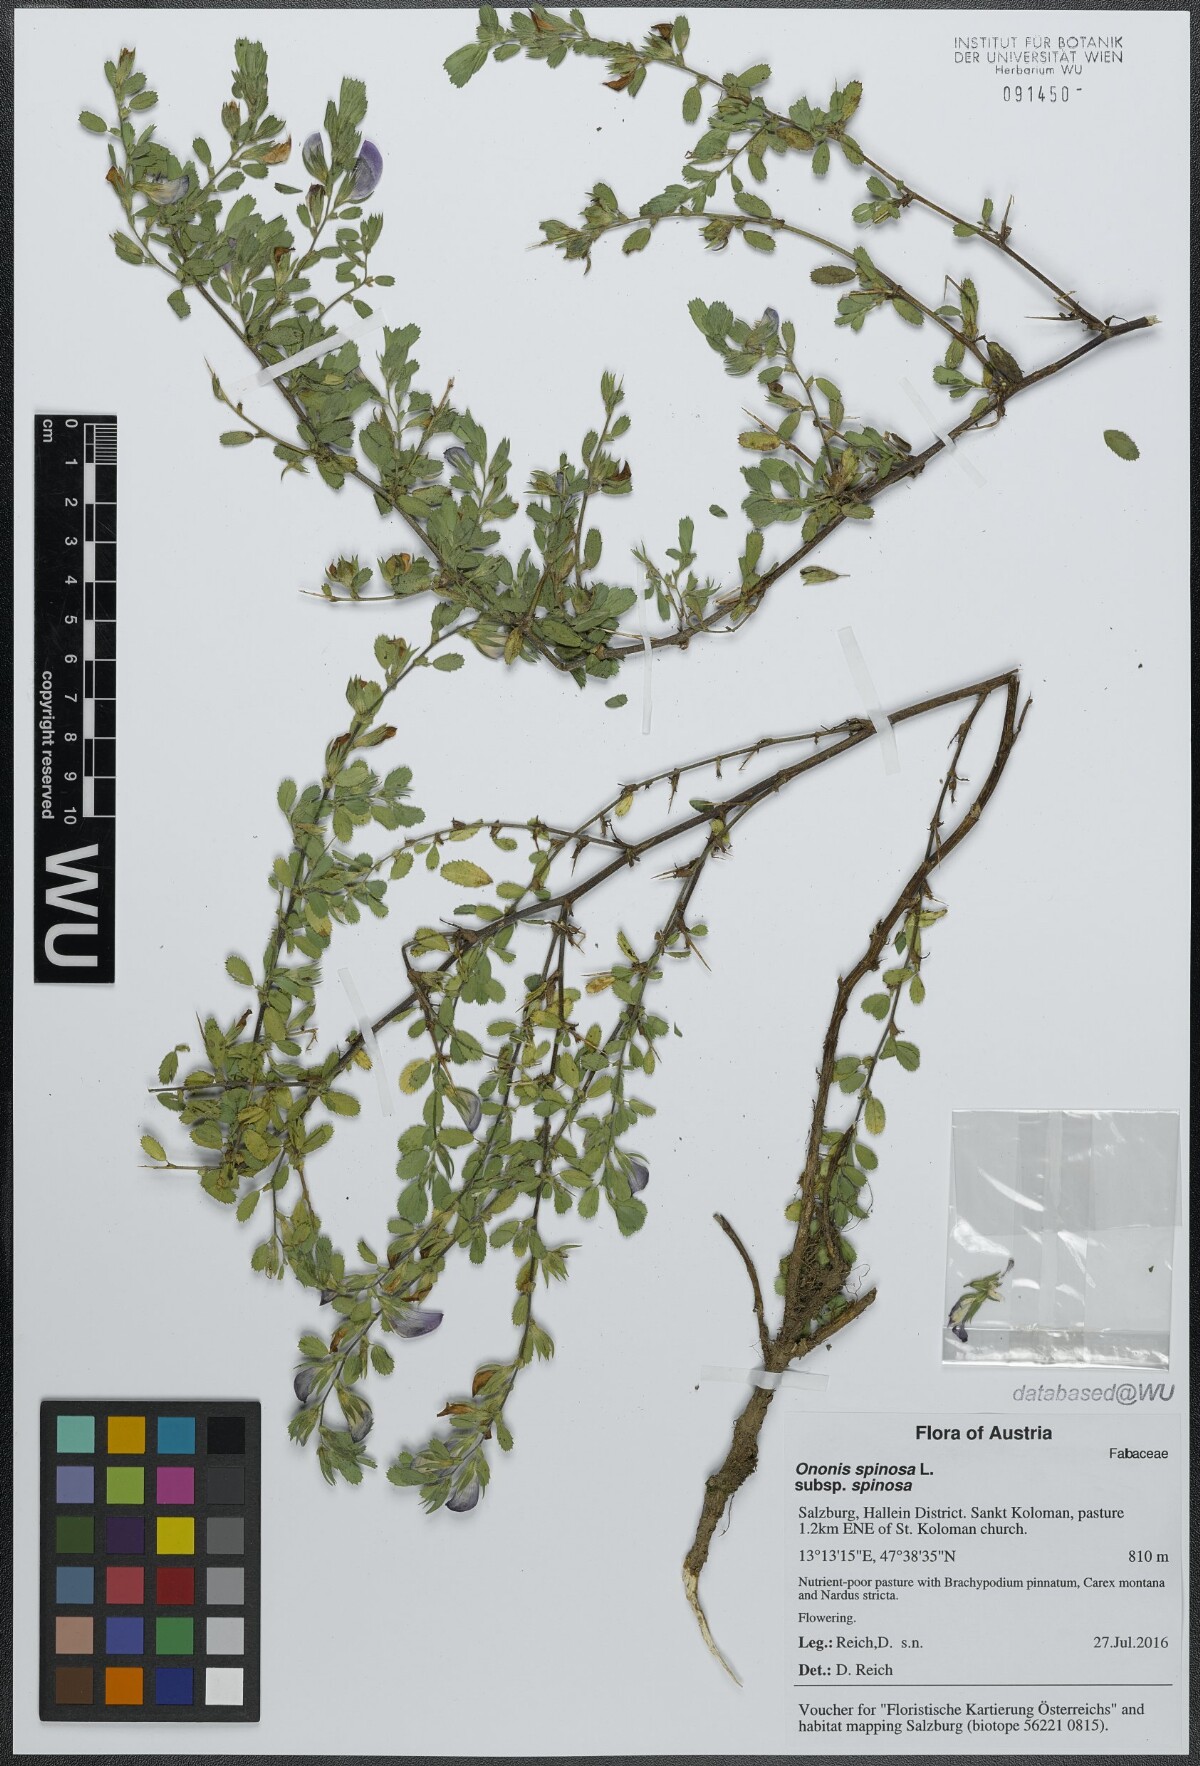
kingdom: Plantae
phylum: Tracheophyta
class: Magnoliopsida
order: Fabales
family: Fabaceae
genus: Ononis
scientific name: Ononis spinosa
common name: Spiny restharrow
